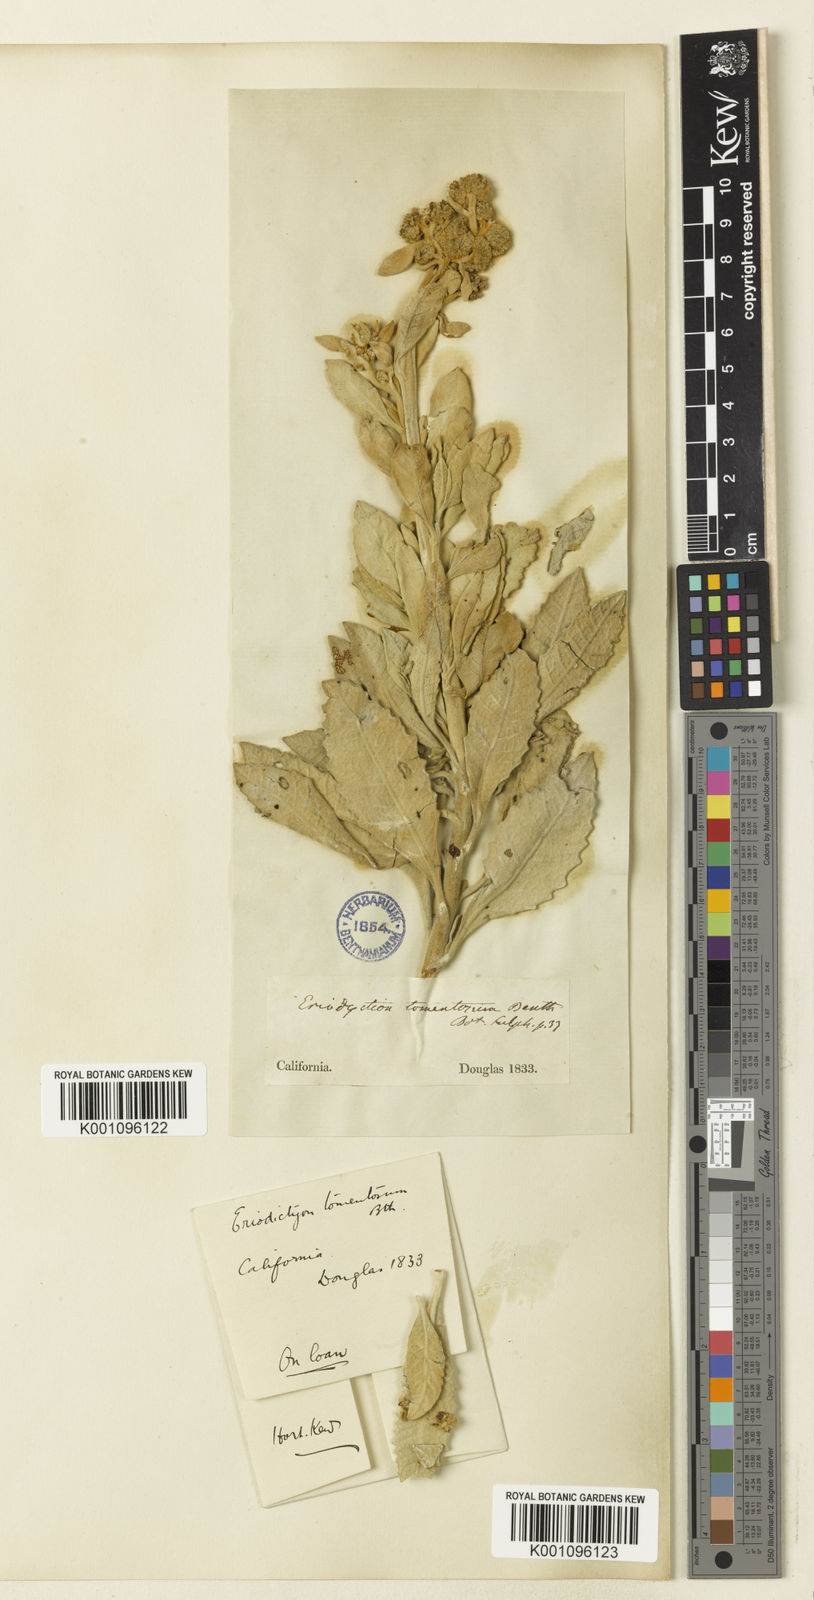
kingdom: Plantae
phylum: Tracheophyta
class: Magnoliopsida
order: Boraginales
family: Namaceae
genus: Eriodictyon
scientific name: Eriodictyon tomentosum
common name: Woolly yerba-santa
